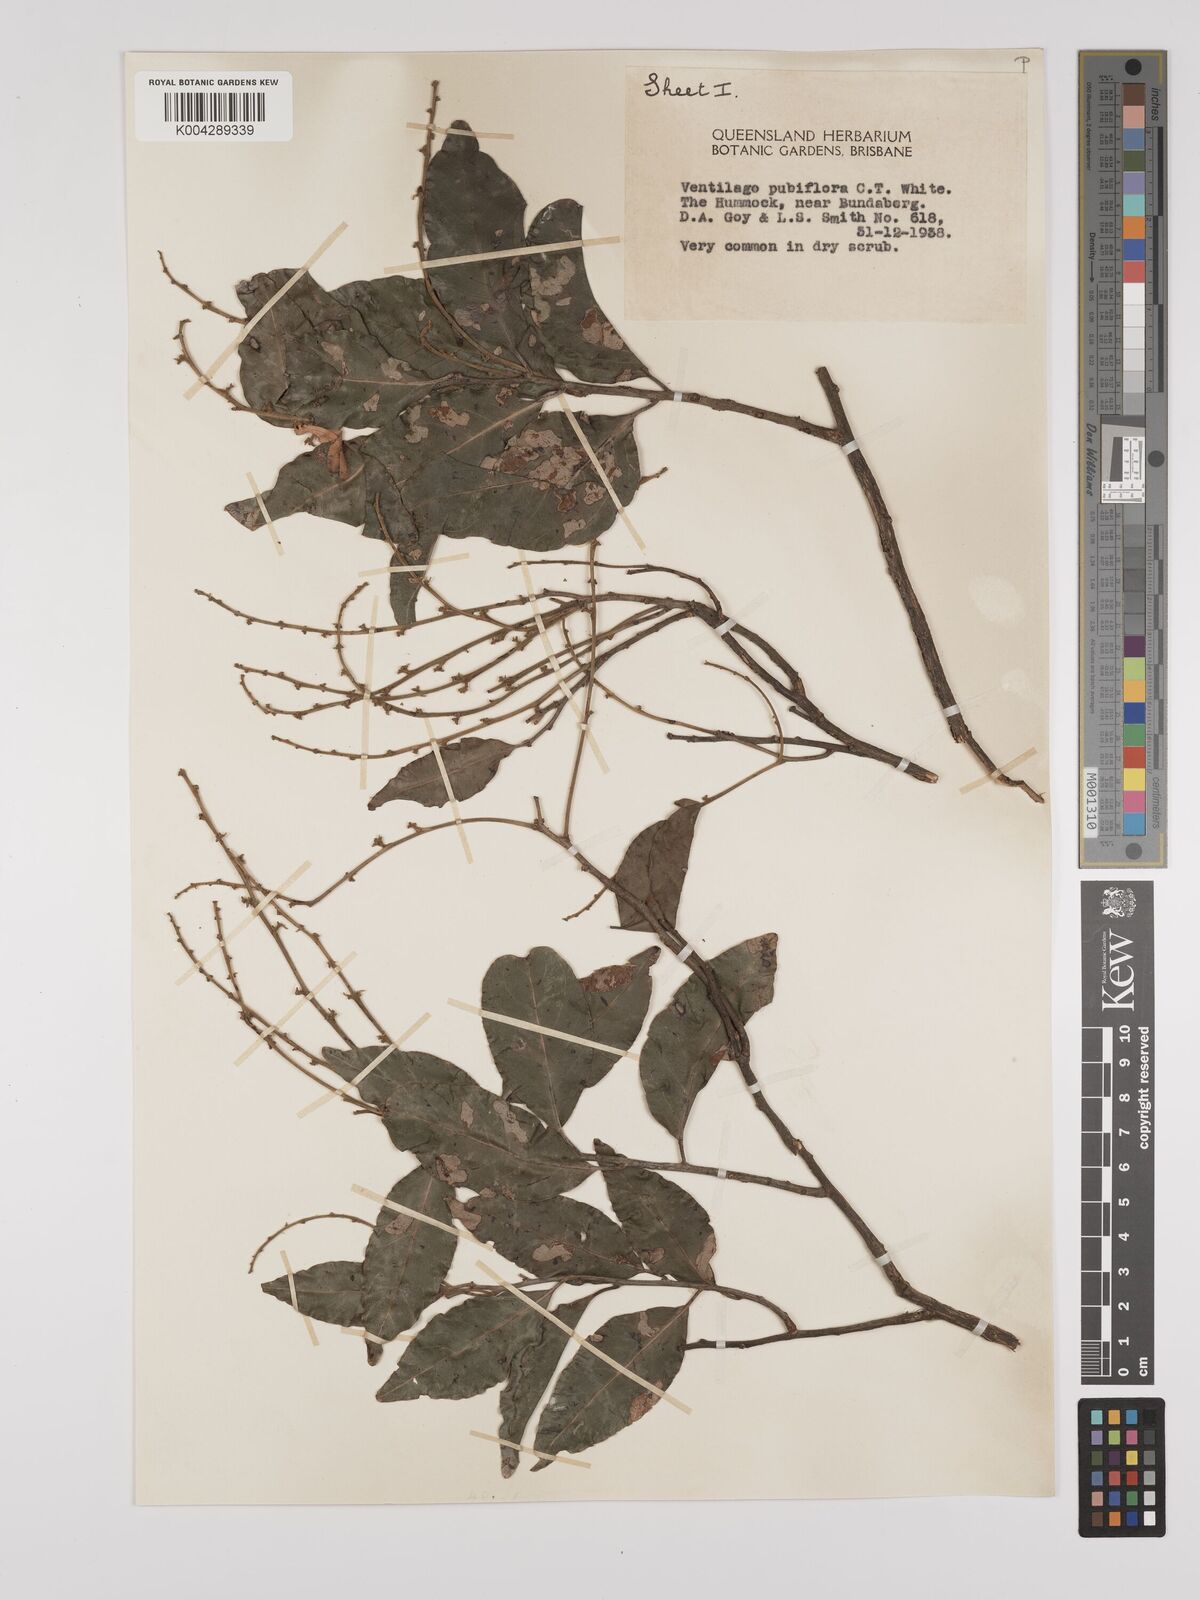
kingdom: Plantae
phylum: Tracheophyta
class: Magnoliopsida
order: Rosales
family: Rhamnaceae
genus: Ventilago
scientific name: Ventilago pubiflora
